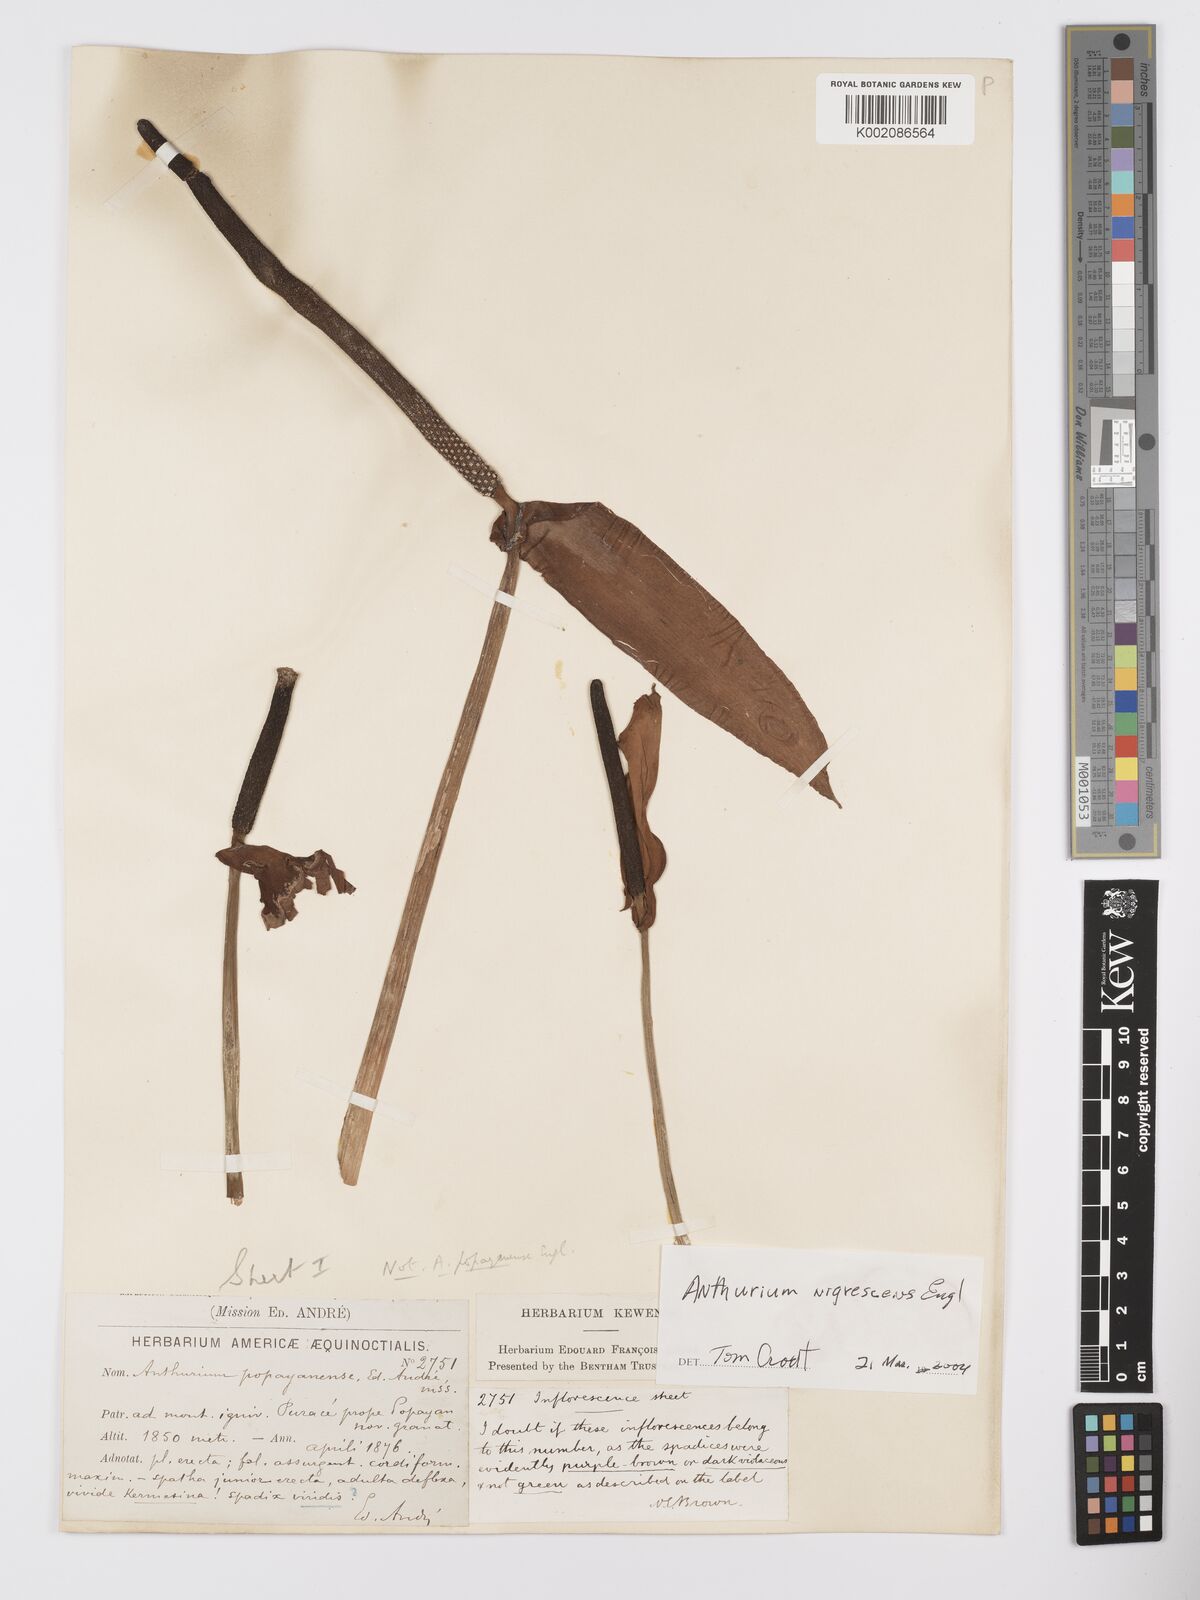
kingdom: Plantae
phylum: Tracheophyta
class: Liliopsida
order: Alismatales
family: Araceae
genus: Anthurium
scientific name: Anthurium nigrescens
